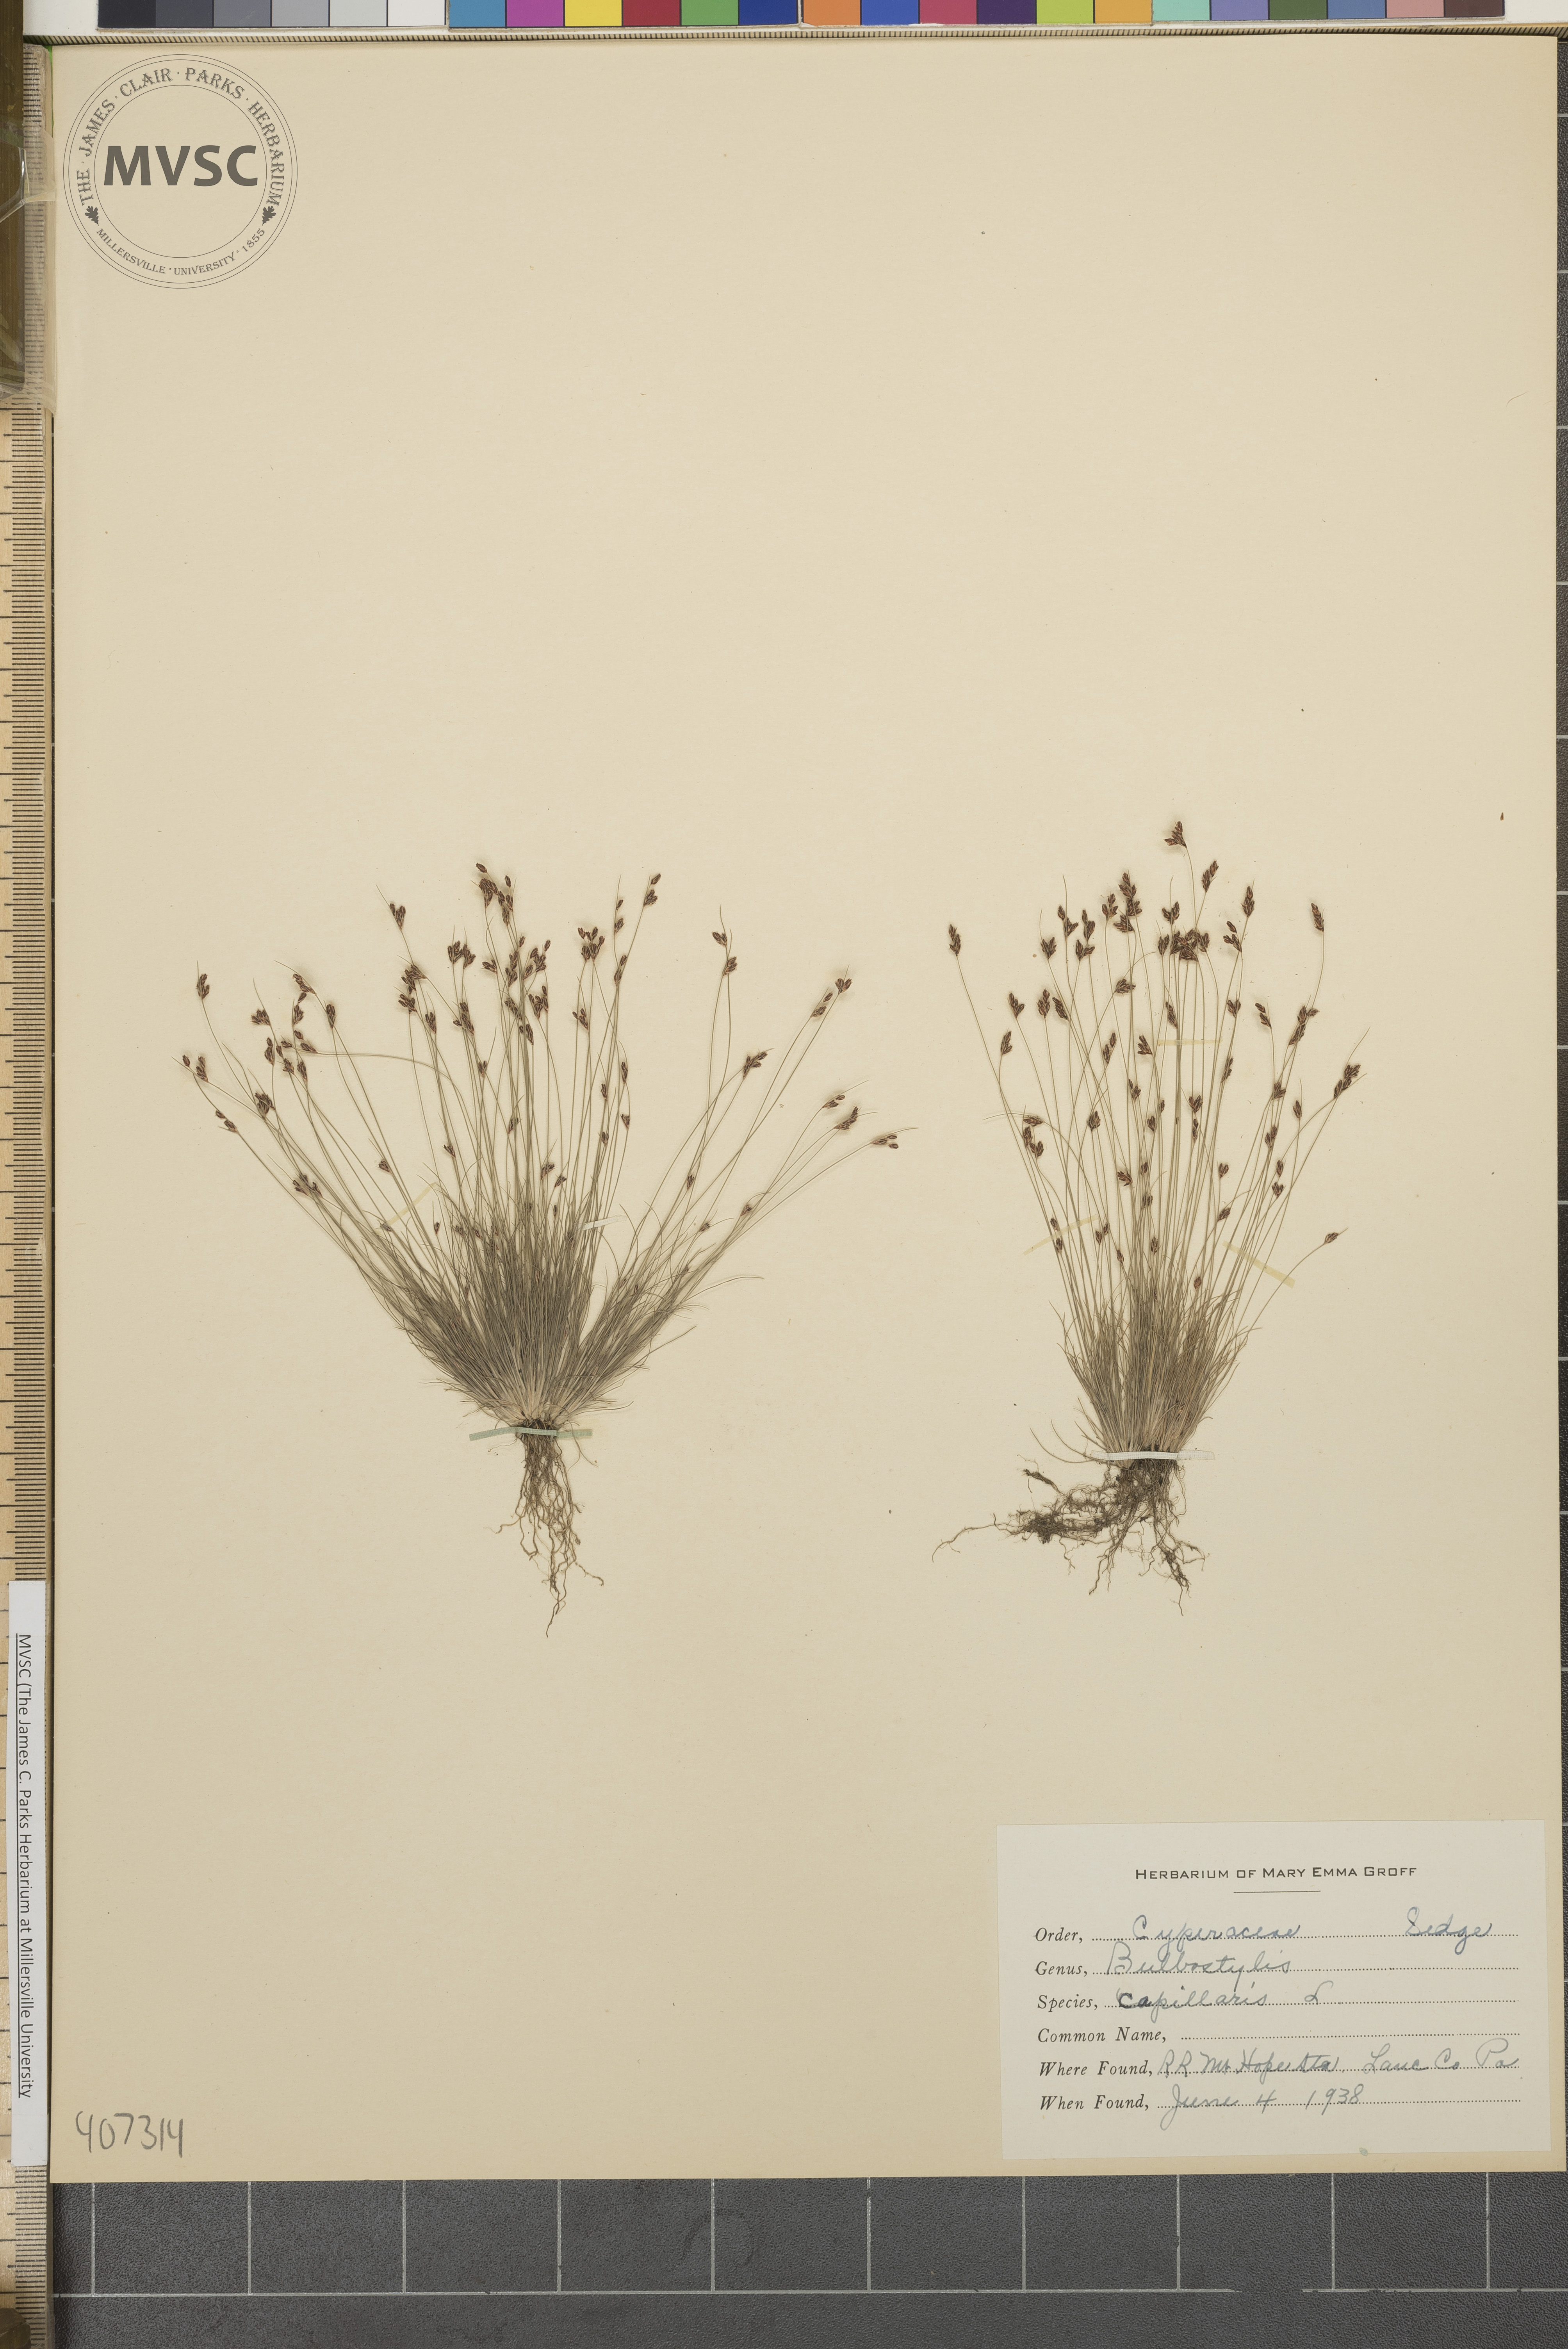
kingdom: Plantae
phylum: Tracheophyta
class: Liliopsida
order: Poales
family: Cyperaceae
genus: Bulbostylis
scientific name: Bulbostylis capillaris
